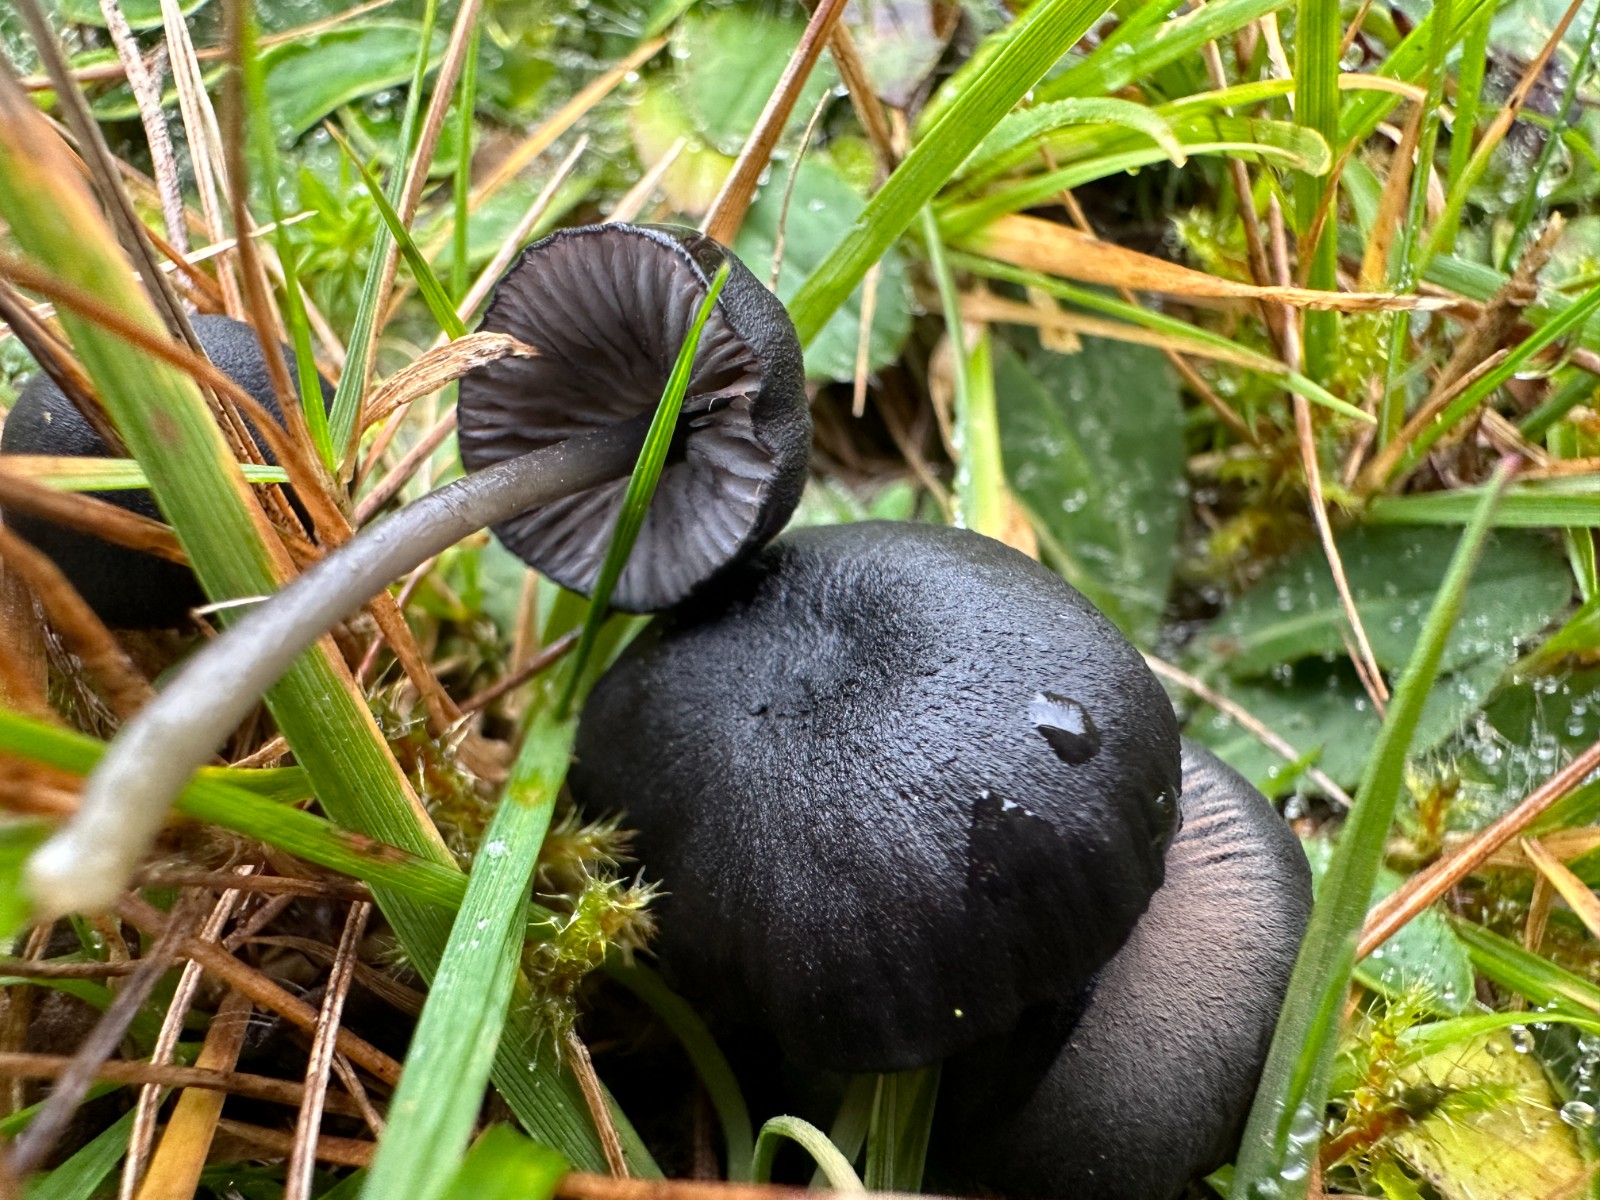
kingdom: Fungi
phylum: Basidiomycota
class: Agaricomycetes
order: Agaricales
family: Entolomataceae
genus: Entoloma
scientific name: Entoloma
